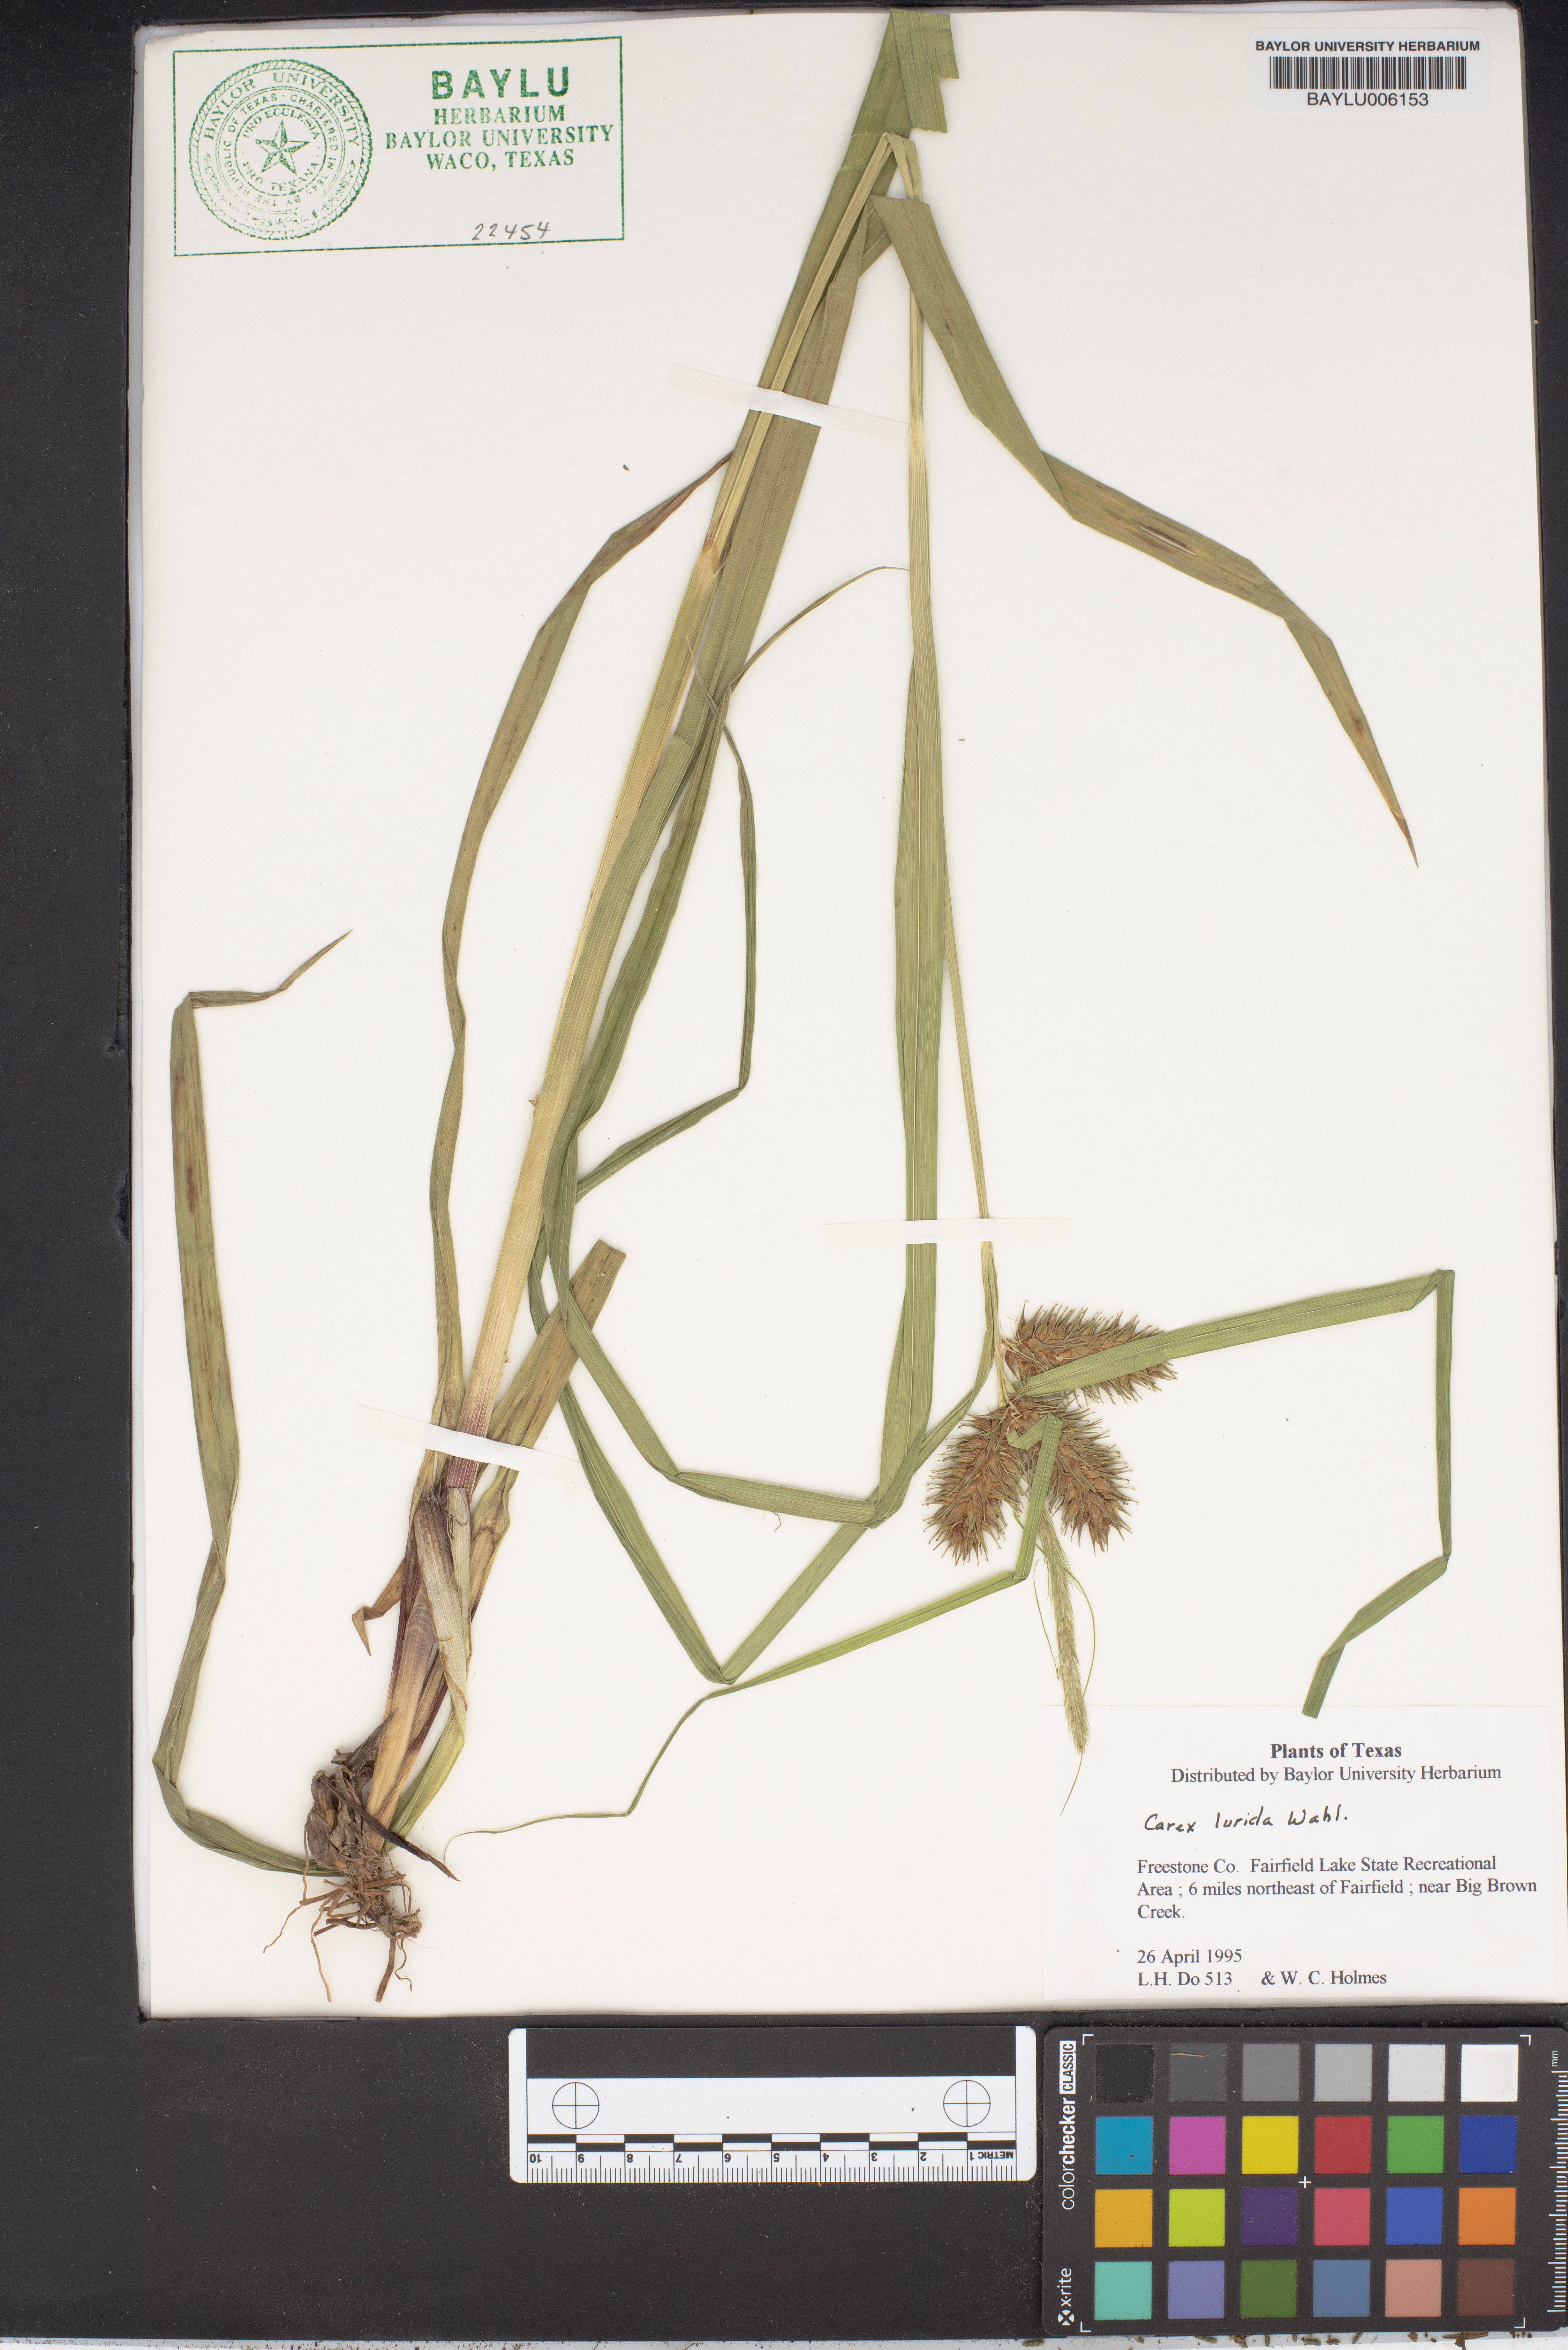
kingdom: Plantae
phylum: Tracheophyta
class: Liliopsida
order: Poales
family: Cyperaceae
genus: Carex
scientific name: Carex lurida
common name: Sallow sedge
